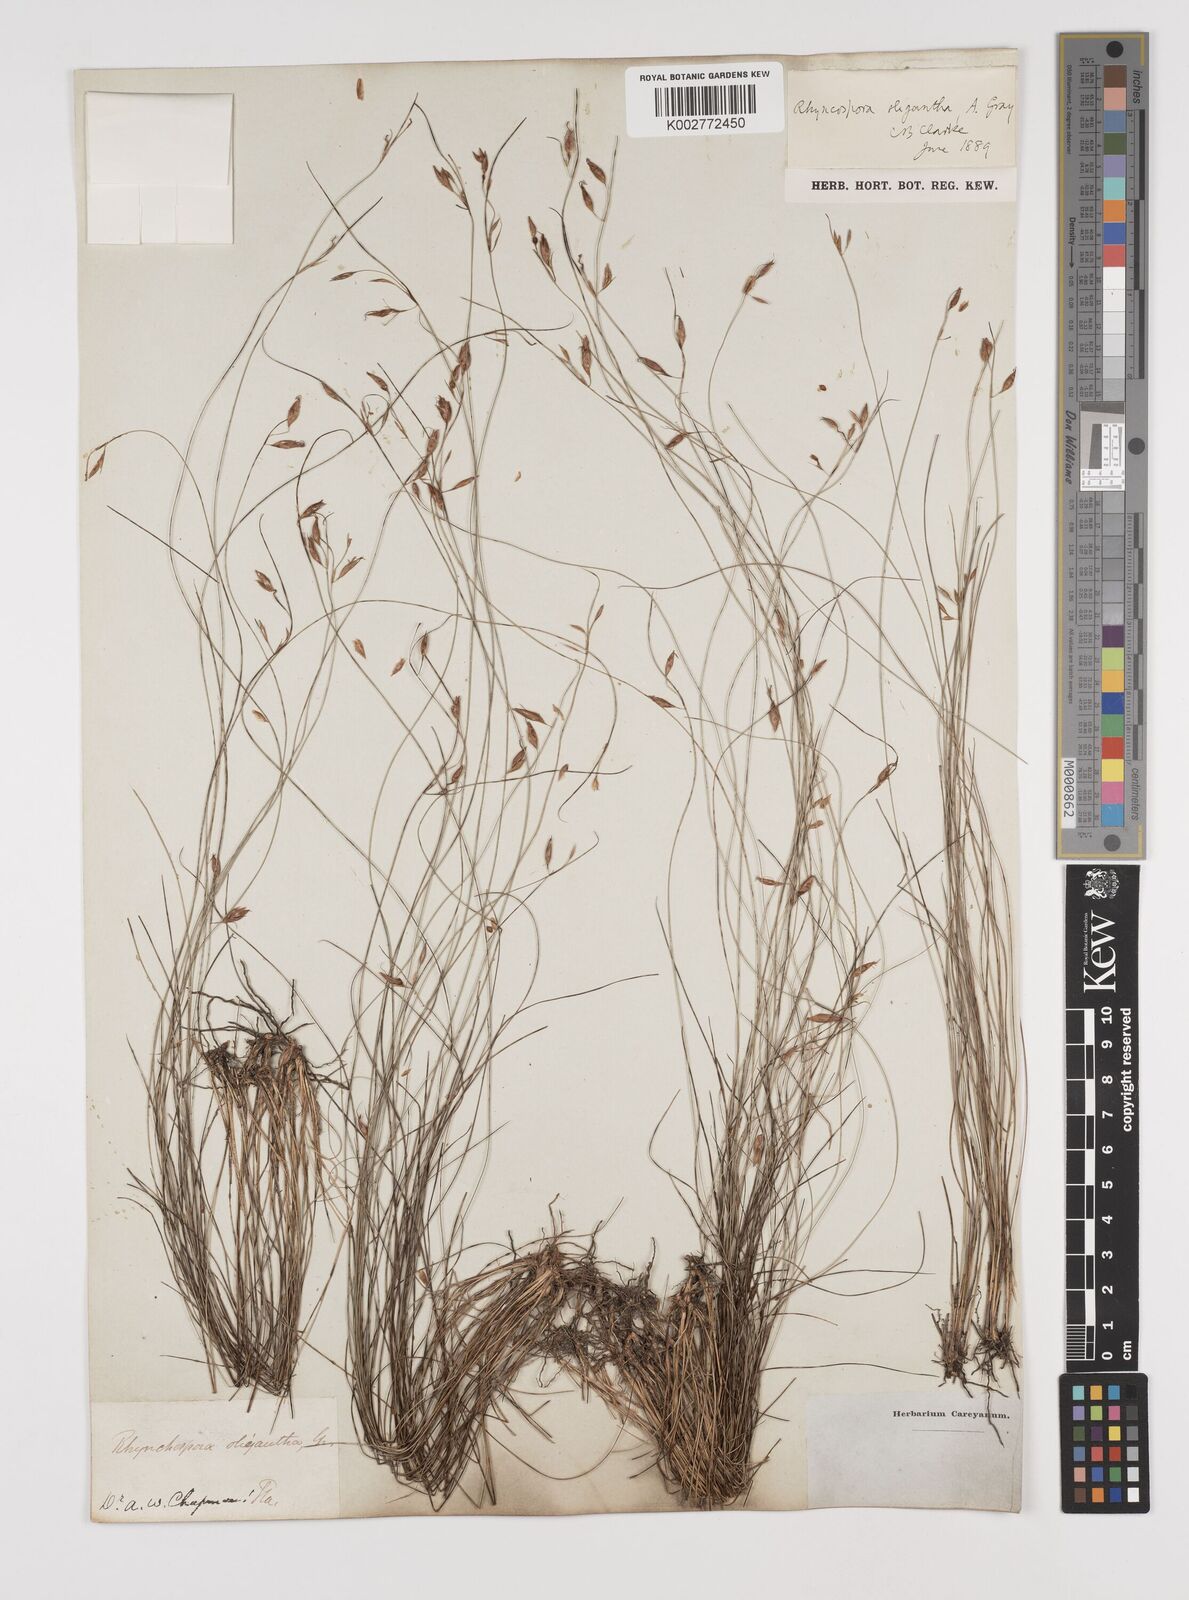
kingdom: Plantae
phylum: Tracheophyta
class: Liliopsida
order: Poales
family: Cyperaceae
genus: Rhynchospora
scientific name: Rhynchospora oligantha
